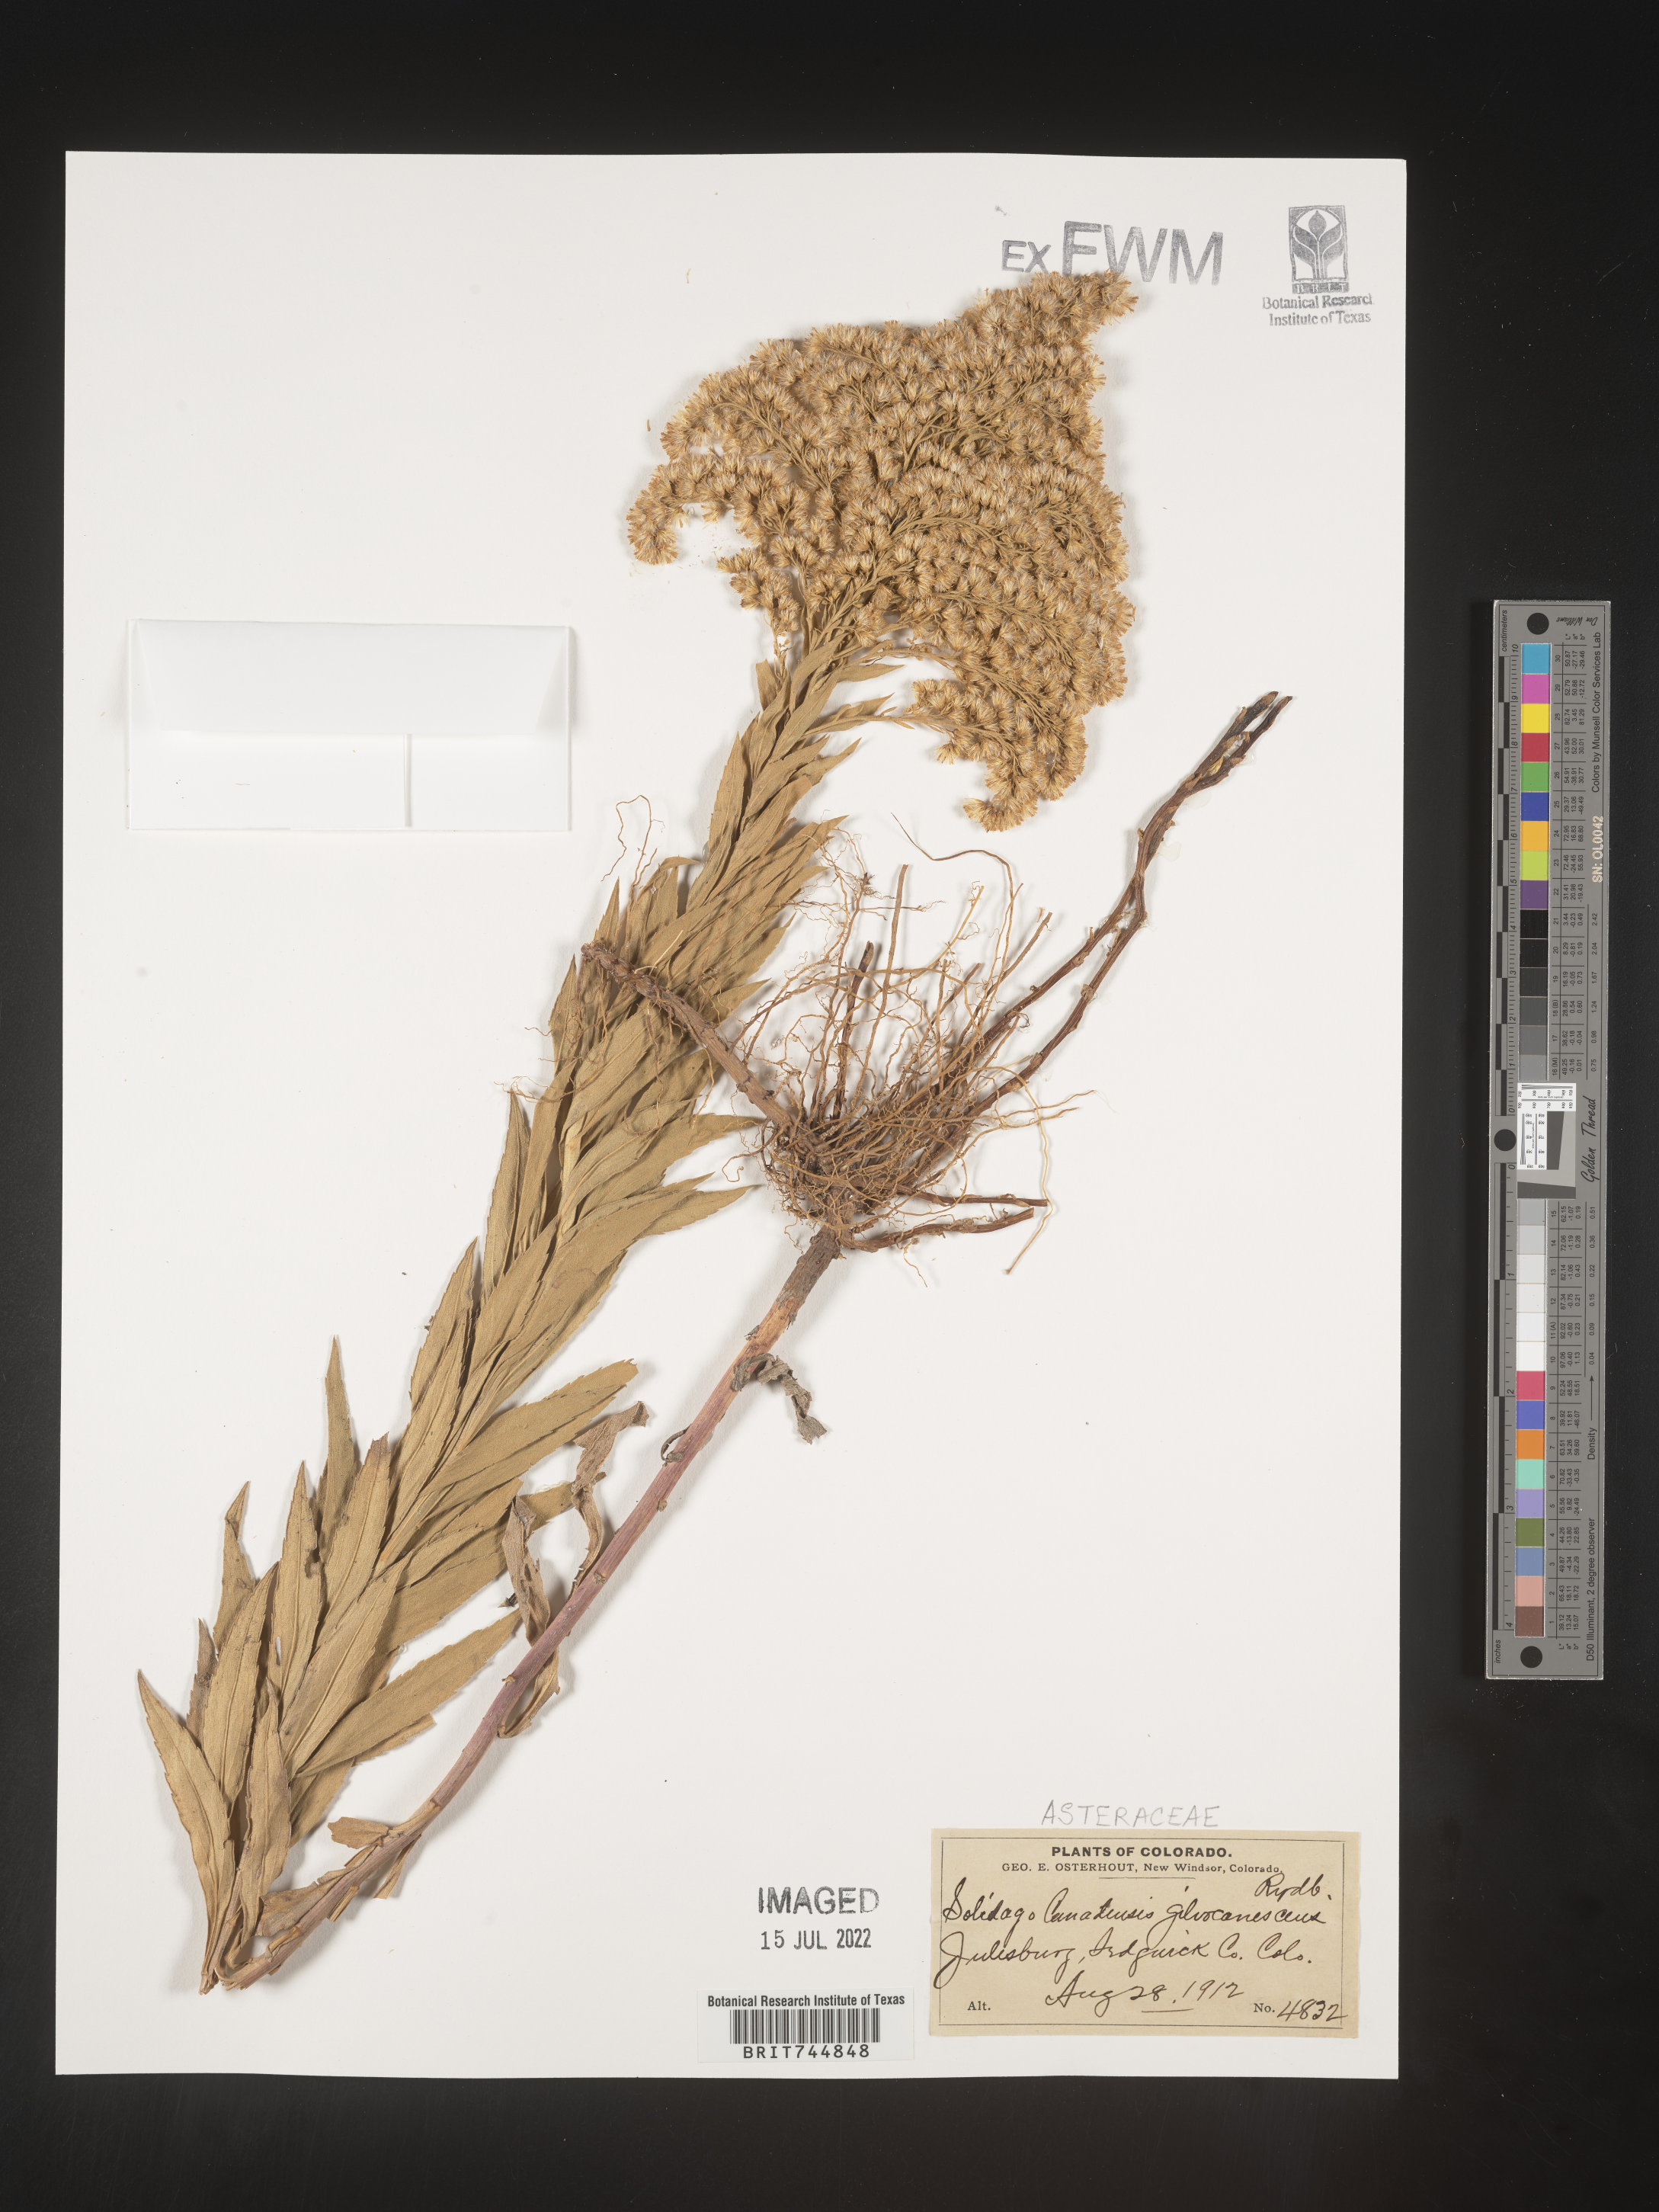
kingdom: Plantae
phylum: Tracheophyta
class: Magnoliopsida
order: Asterales
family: Asteraceae
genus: Solidago
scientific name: Solidago canadensis
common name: Canada goldenrod
